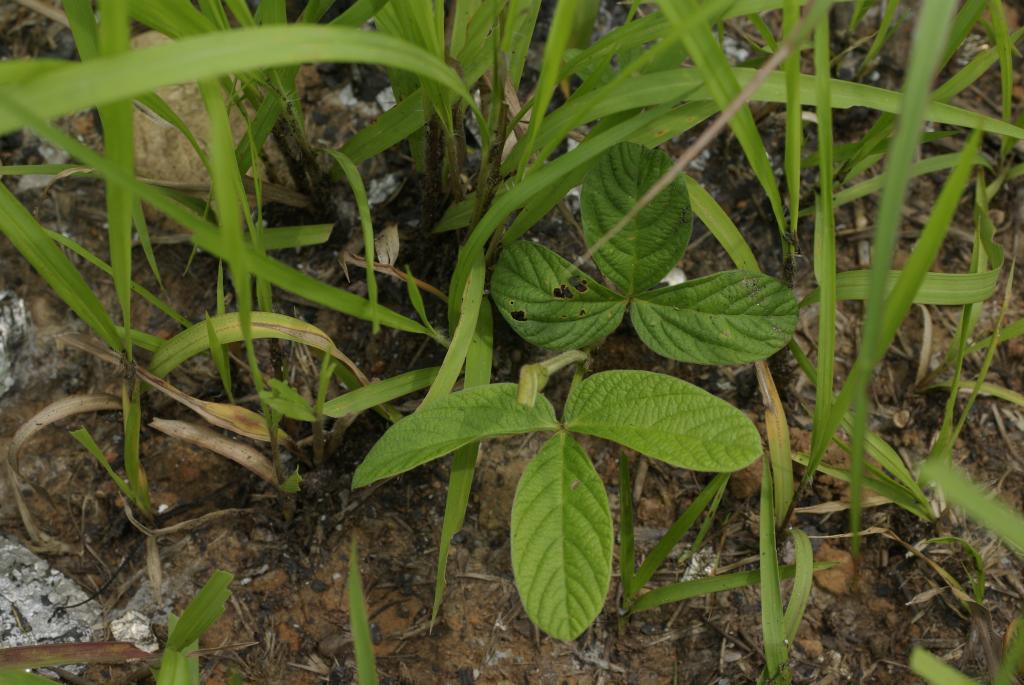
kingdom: Plantae
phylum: Tracheophyta
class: Magnoliopsida
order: Fabales
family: Fabaceae
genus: Flemingia
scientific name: Flemingia macrophylla
